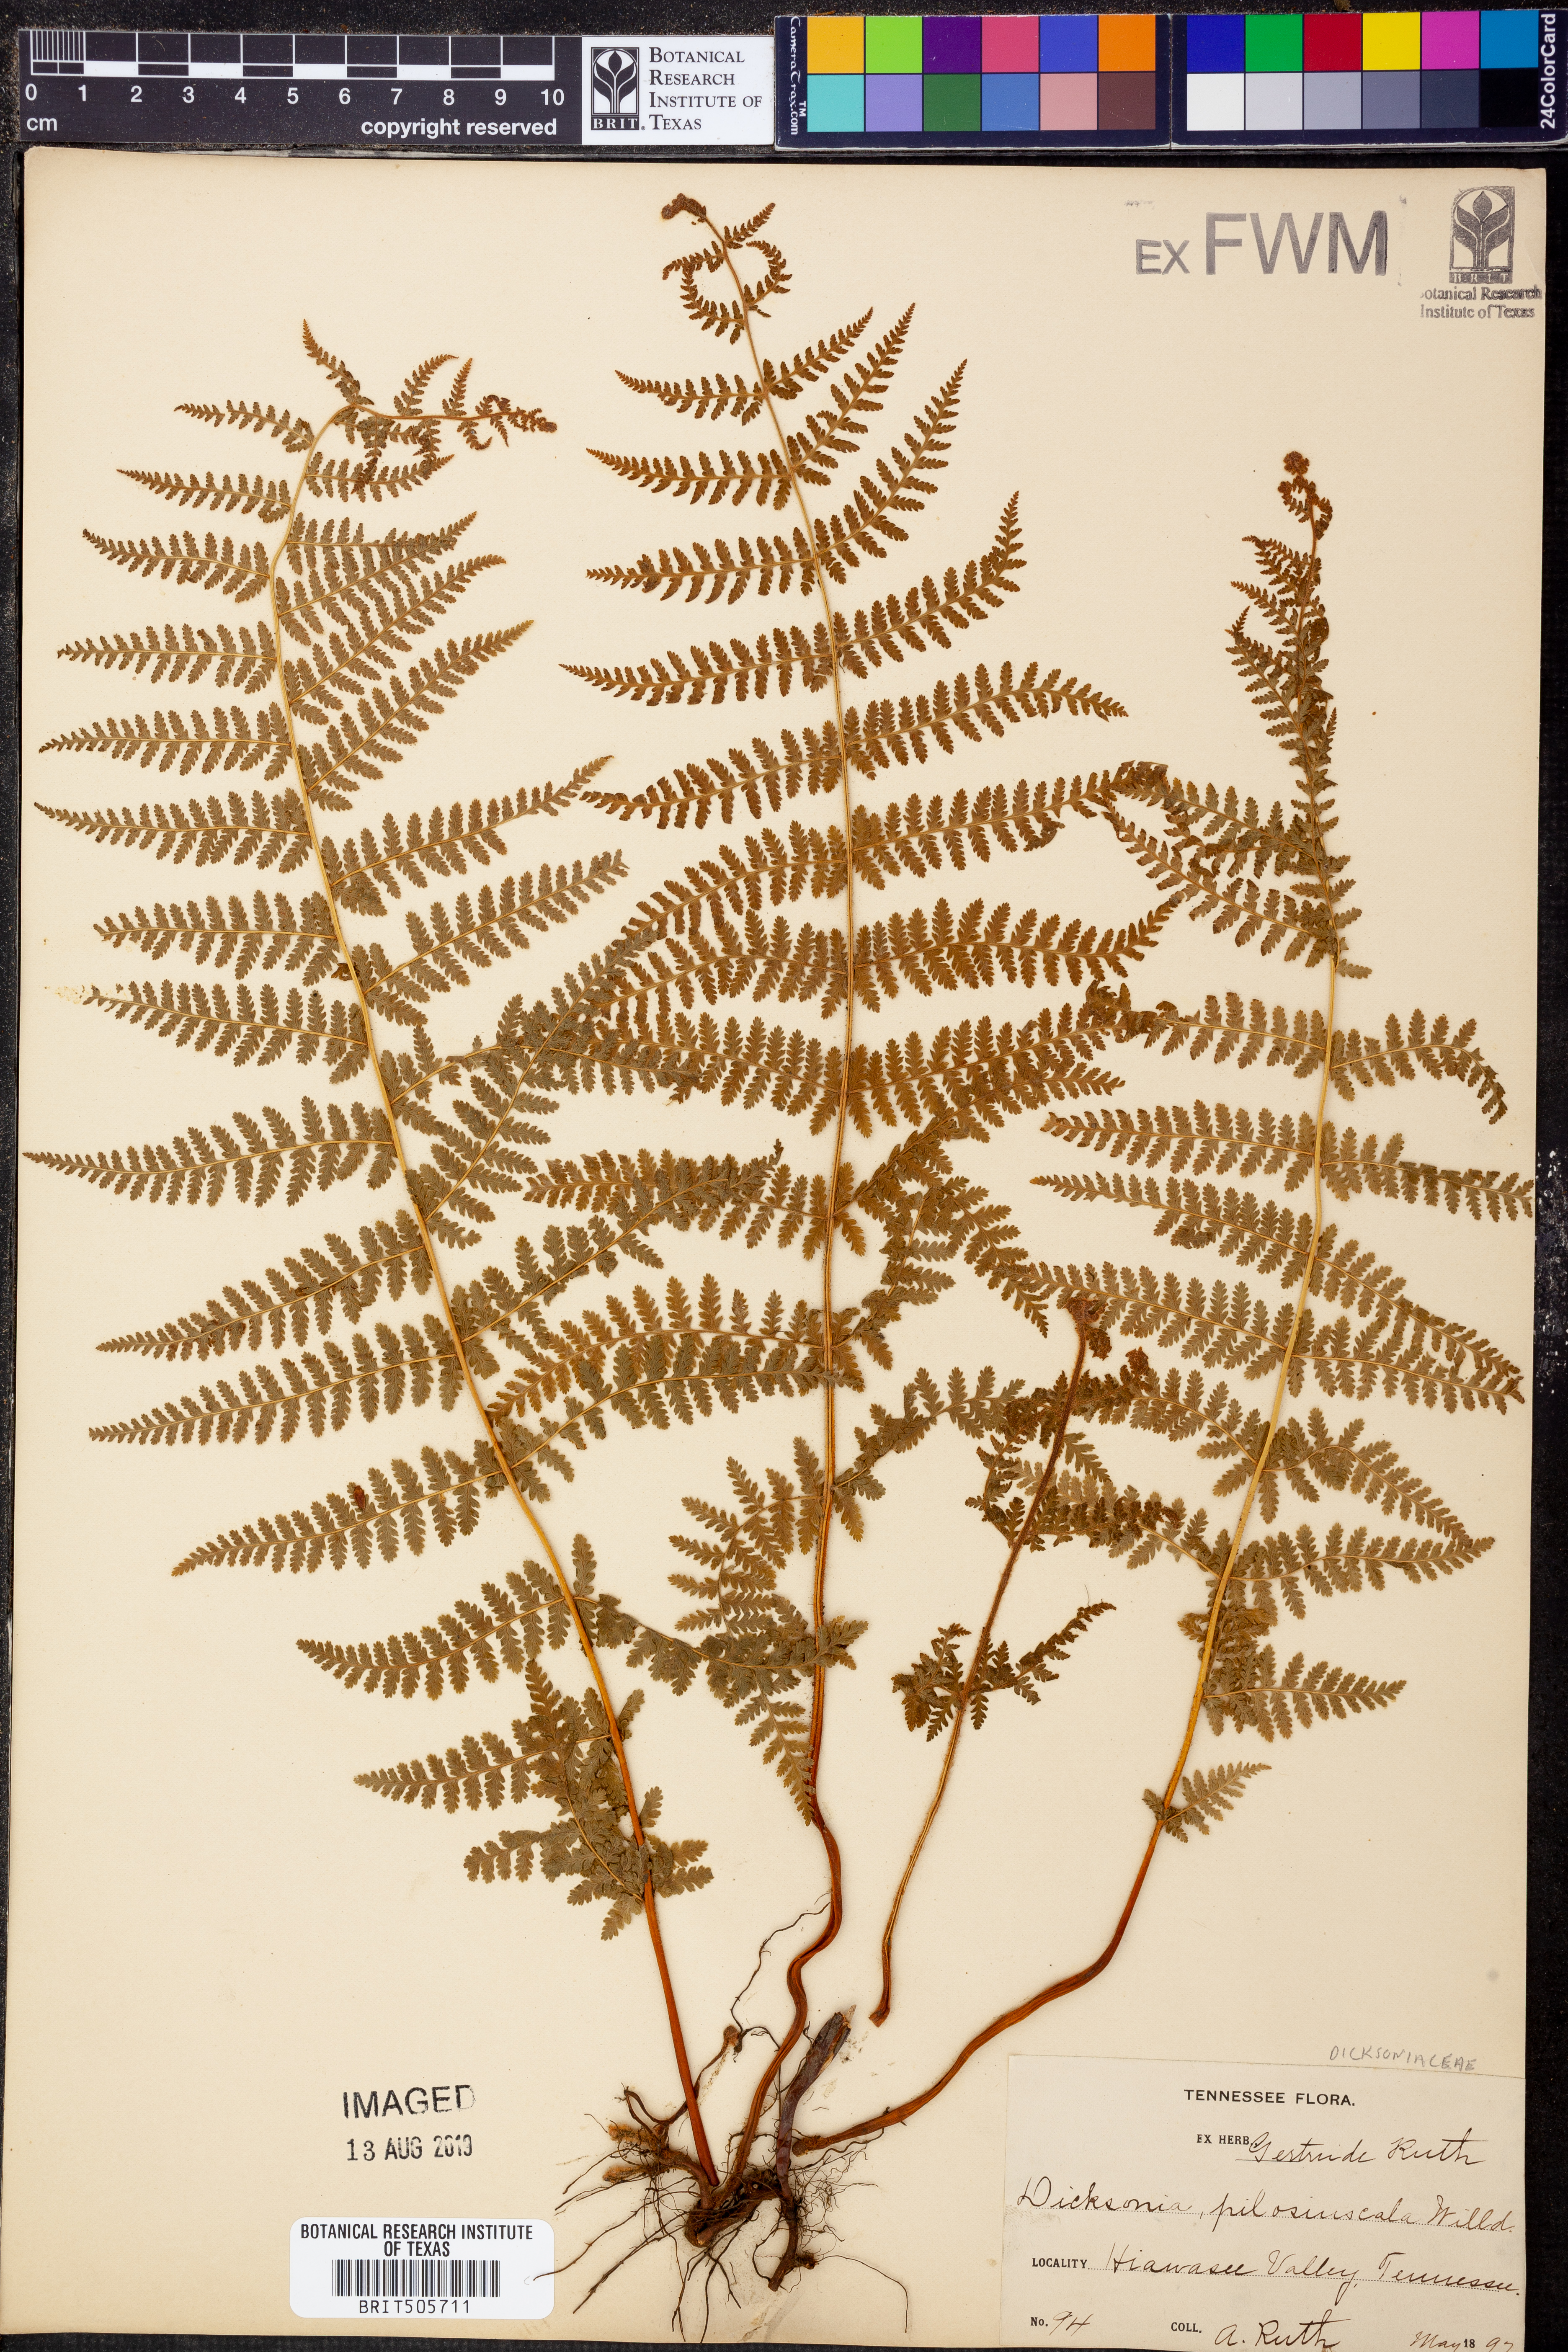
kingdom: Plantae
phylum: Tracheophyta
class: Polypodiopsida
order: Polypodiales
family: Dennstaedtiaceae
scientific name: Dennstaedtiaceae
